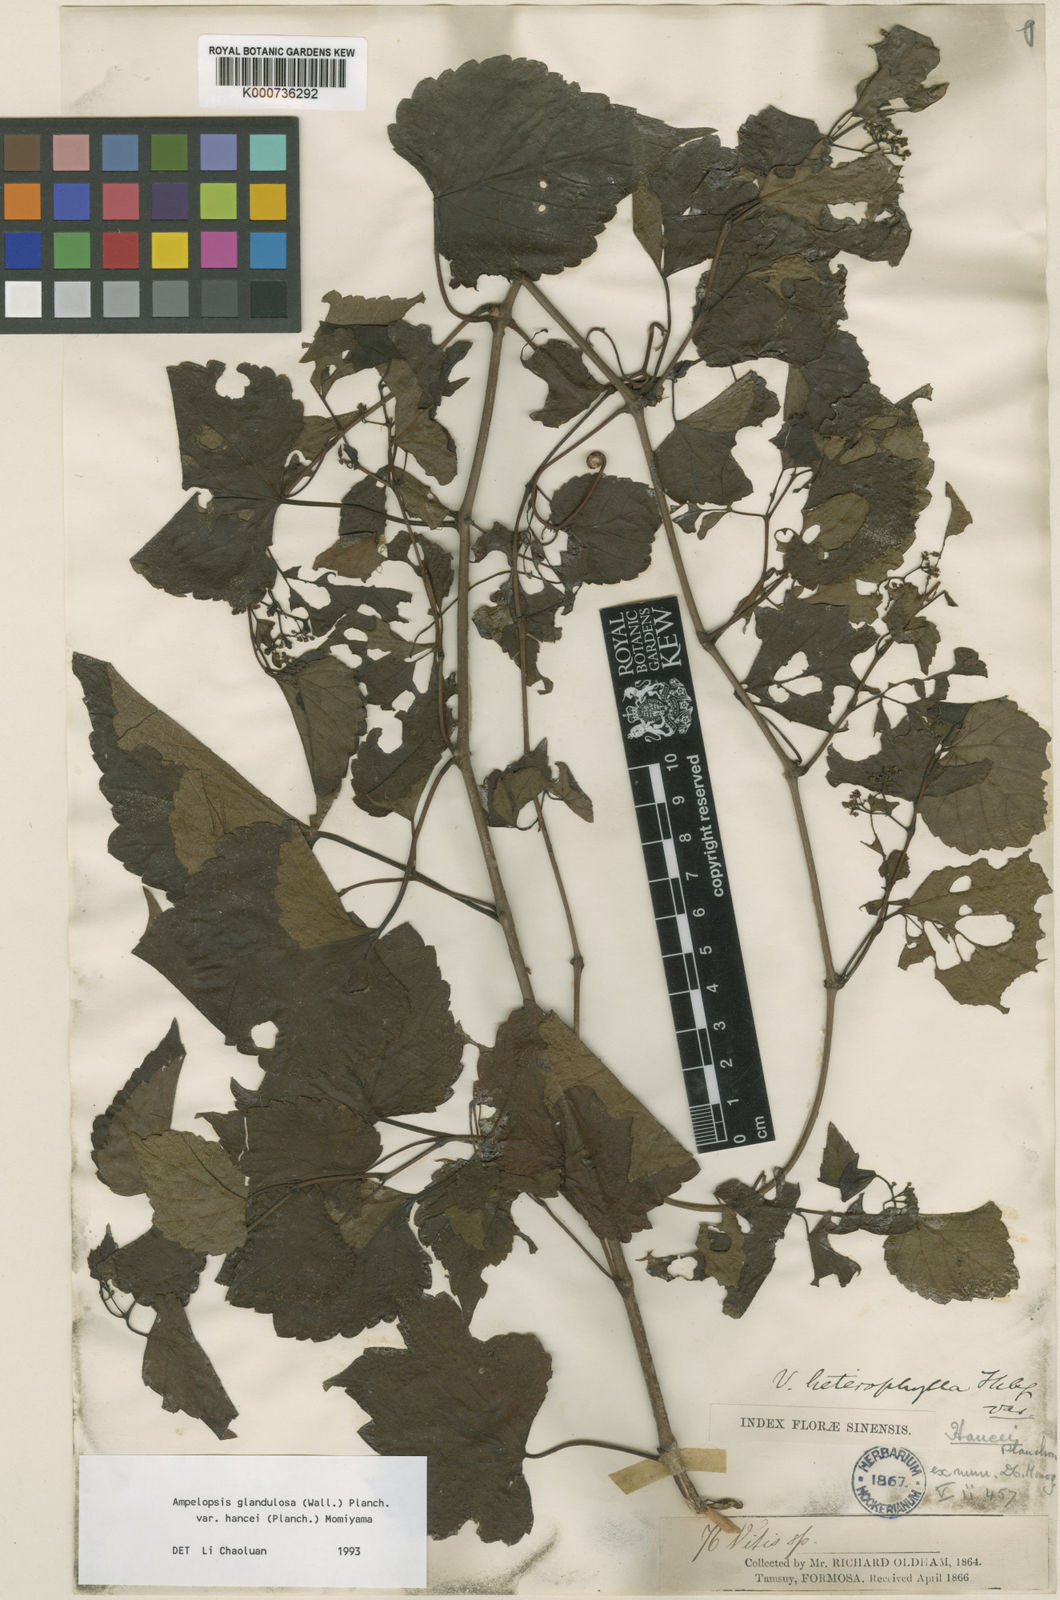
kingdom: Plantae
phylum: Tracheophyta
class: Magnoliopsida
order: Vitales
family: Vitaceae
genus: Ampelopsis
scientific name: Ampelopsis glandulosa
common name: Amur peppervine
